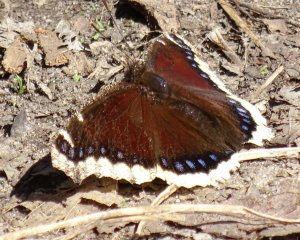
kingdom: Animalia
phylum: Arthropoda
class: Insecta
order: Lepidoptera
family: Nymphalidae
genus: Nymphalis
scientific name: Nymphalis antiopa
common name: Mourning Cloak
